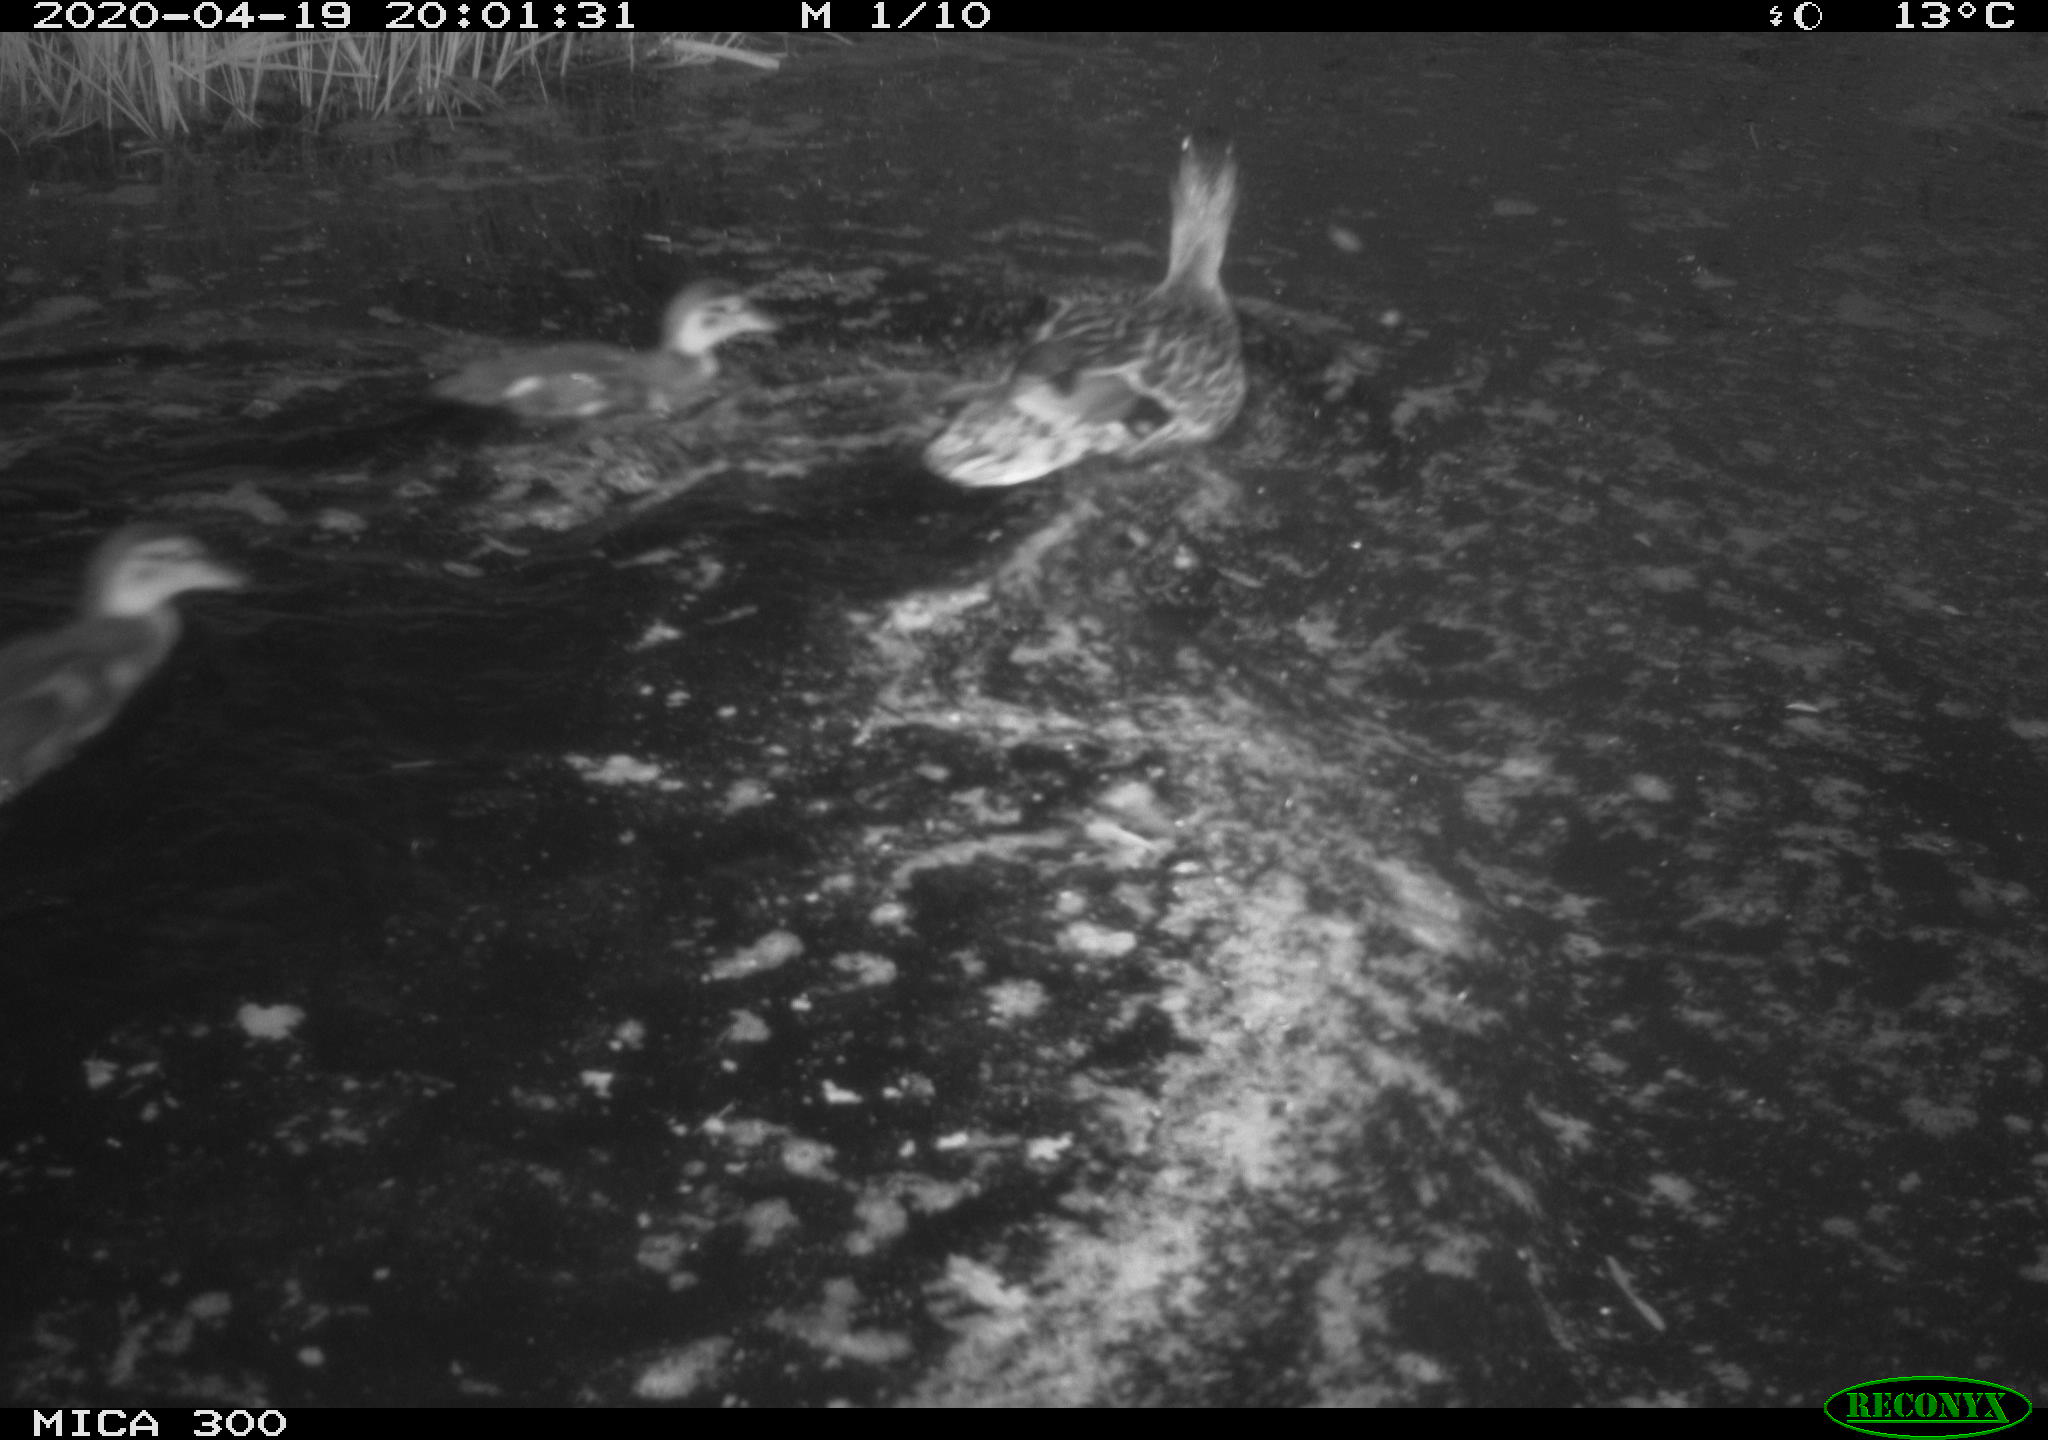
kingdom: Animalia
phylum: Chordata
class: Aves
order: Anseriformes
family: Anatidae
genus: Anas
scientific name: Anas platyrhynchos
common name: Mallard
